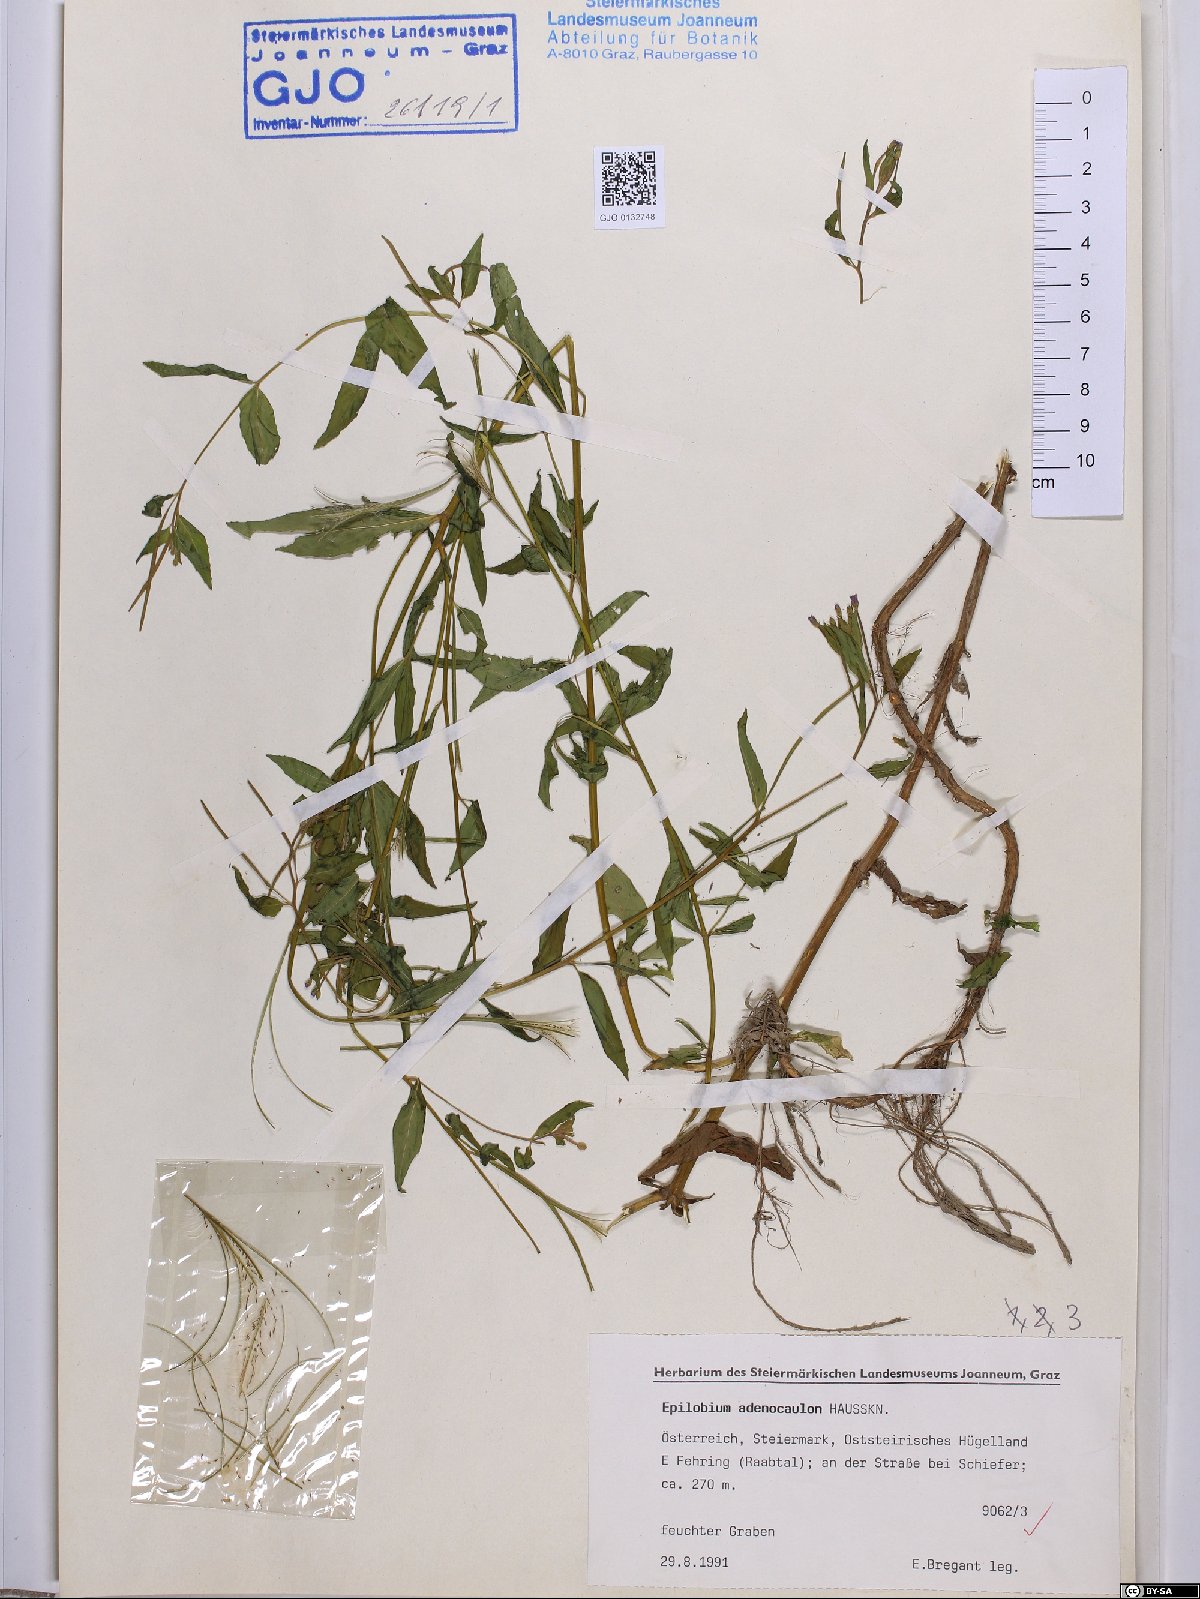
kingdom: Plantae
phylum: Tracheophyta
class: Magnoliopsida
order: Myrtales
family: Onagraceae
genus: Epilobium
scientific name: Epilobium ciliatum
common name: American willowherb
